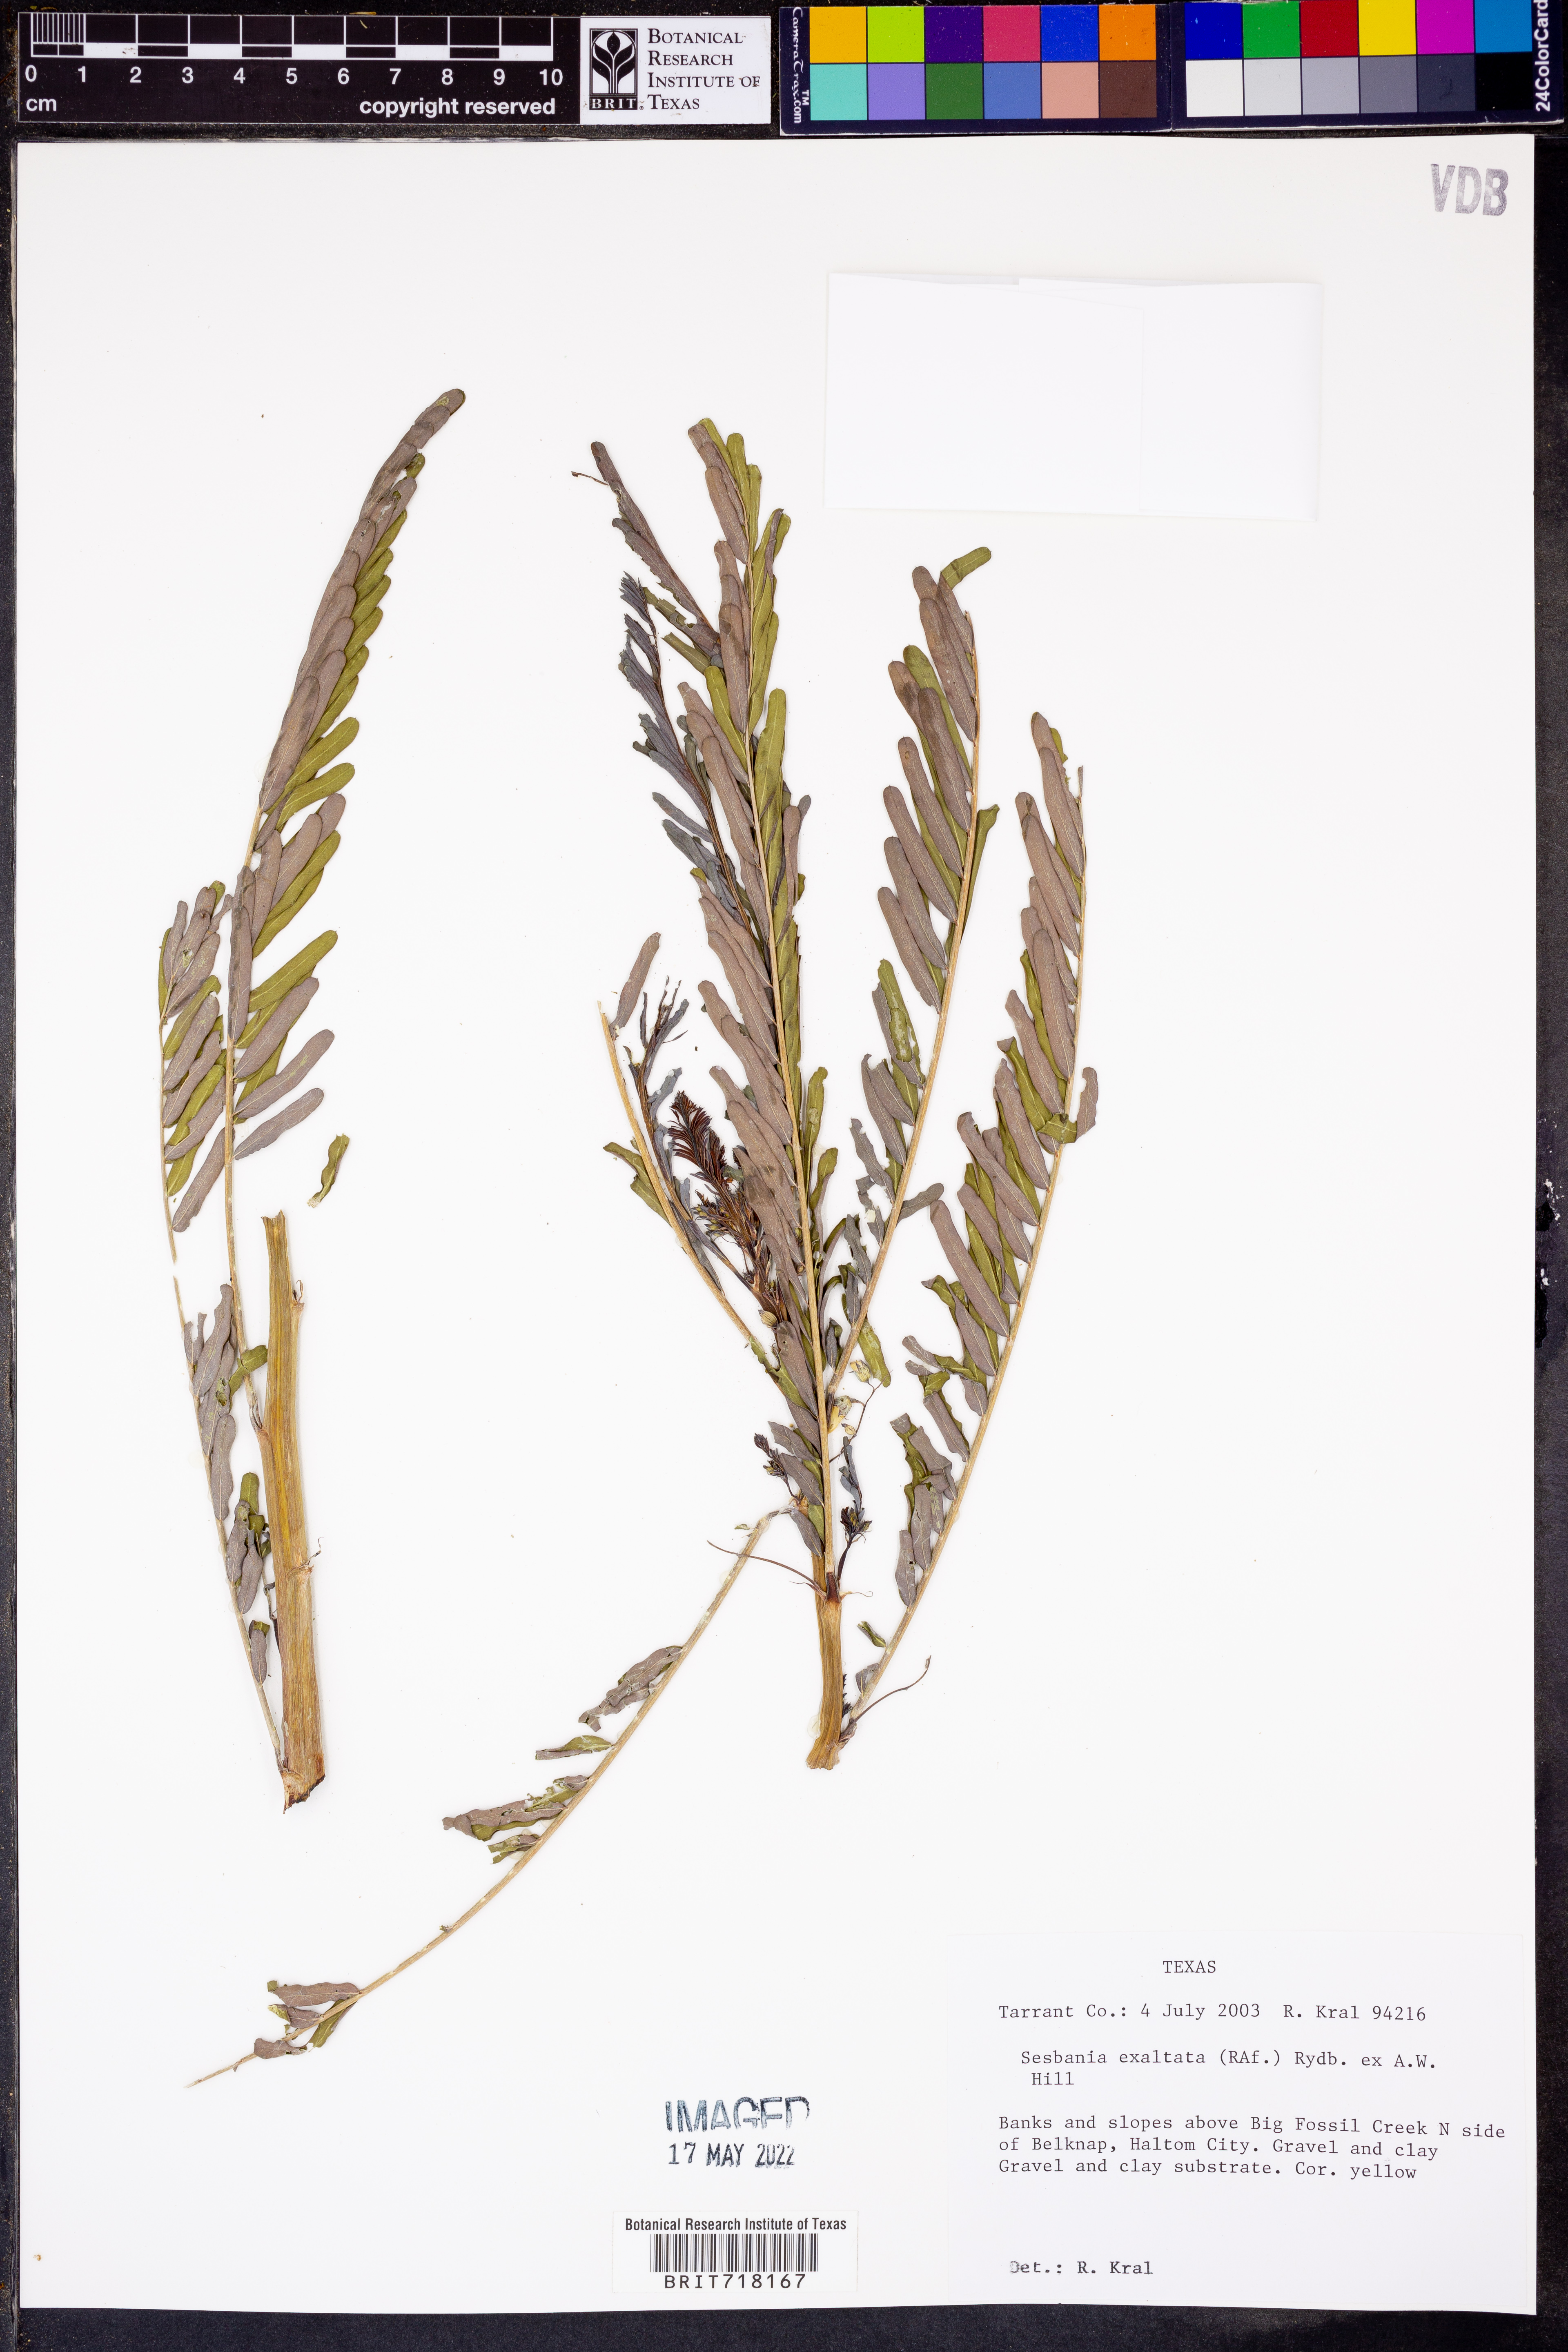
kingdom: Plantae
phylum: Tracheophyta
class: Magnoliopsida
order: Fabales
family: Fabaceae
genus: Sesbania
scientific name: Sesbania herbacea
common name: Bigpod sesbania
